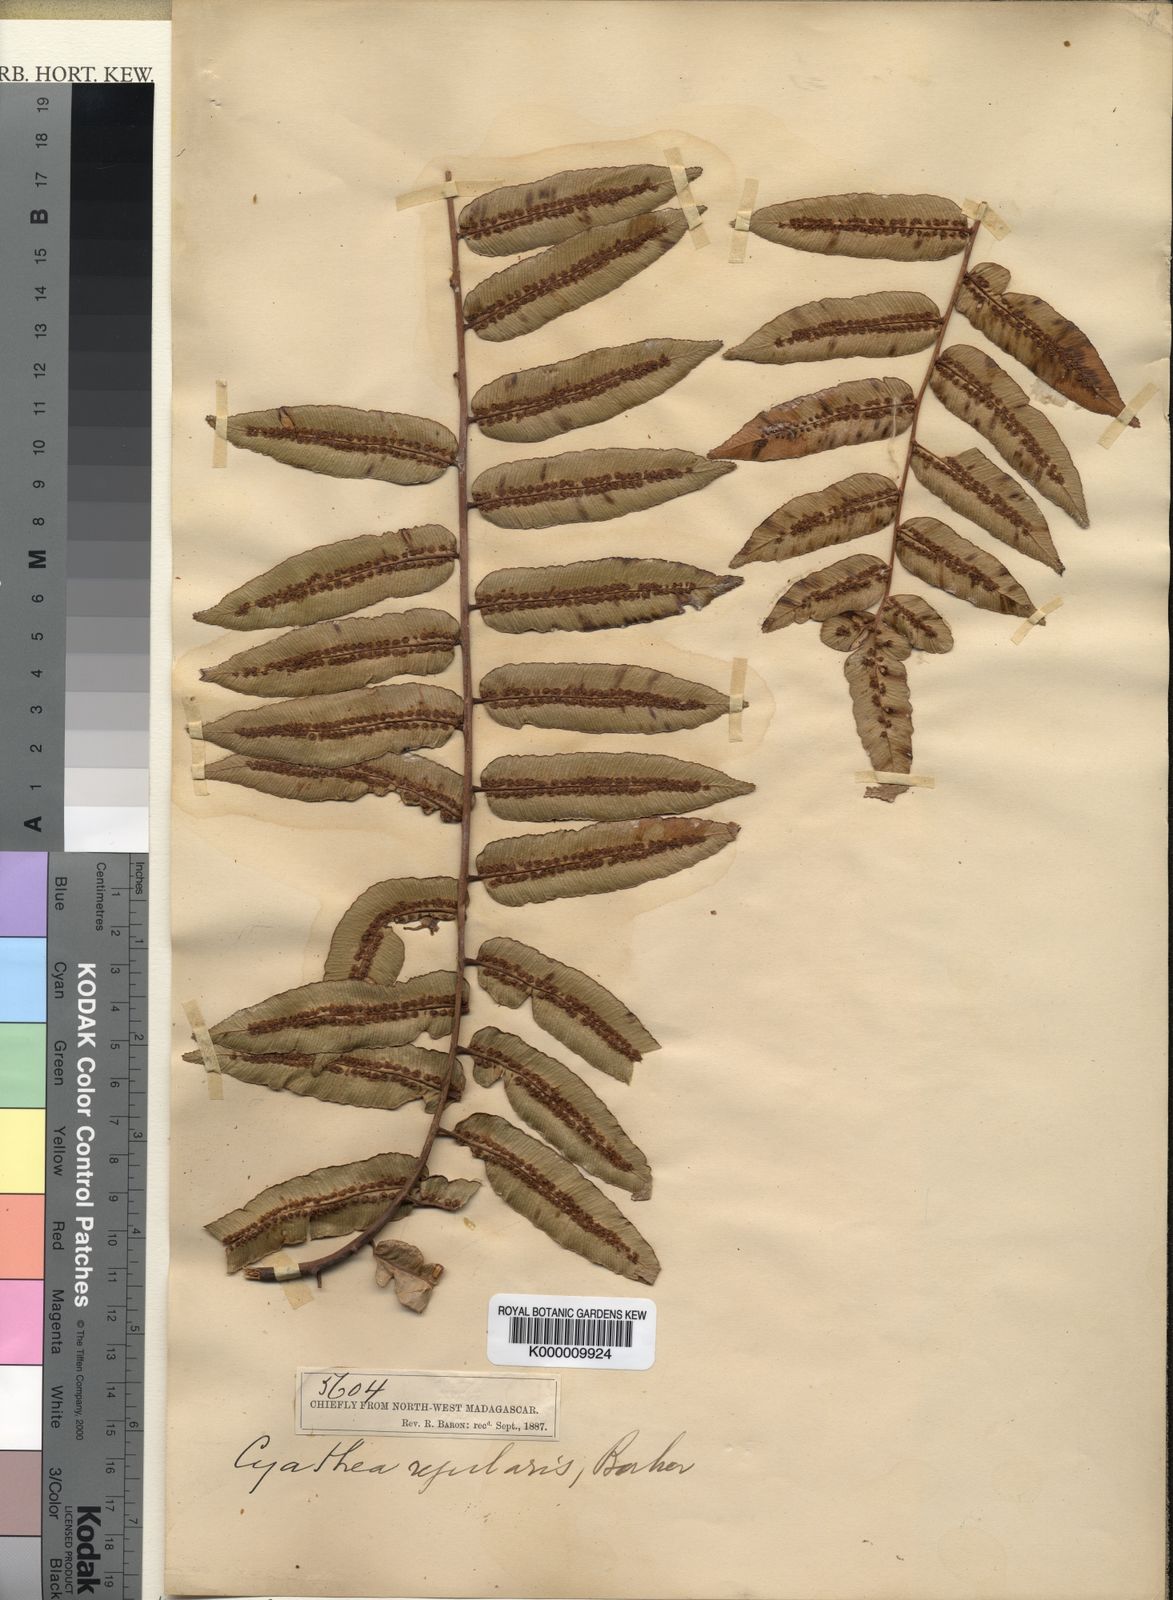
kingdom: Plantae
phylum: Tracheophyta
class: Polypodiopsida
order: Cyatheales
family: Cyatheaceae
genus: Alsophila
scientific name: Alsophila serratifolia
